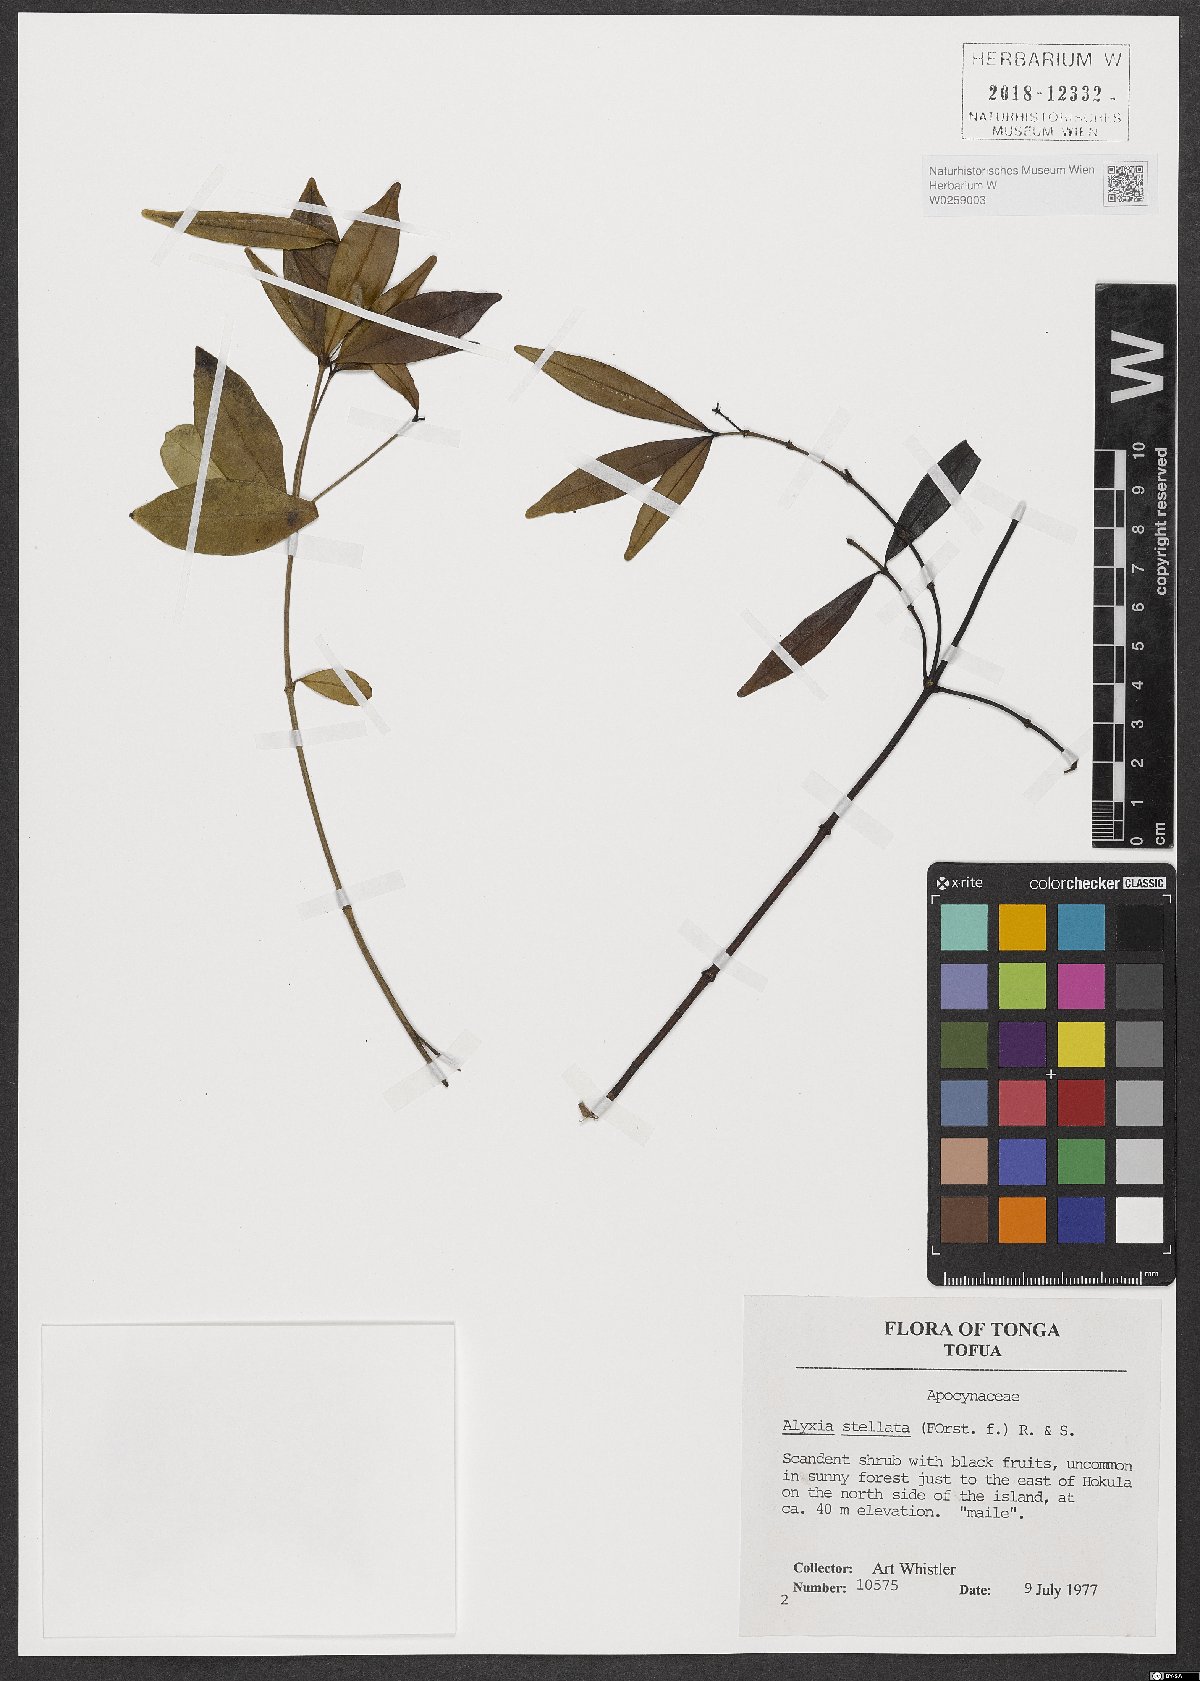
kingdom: Plantae
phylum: Tracheophyta
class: Magnoliopsida
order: Gentianales
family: Apocynaceae
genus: Alyxia
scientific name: Alyxia stellata
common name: Maile
